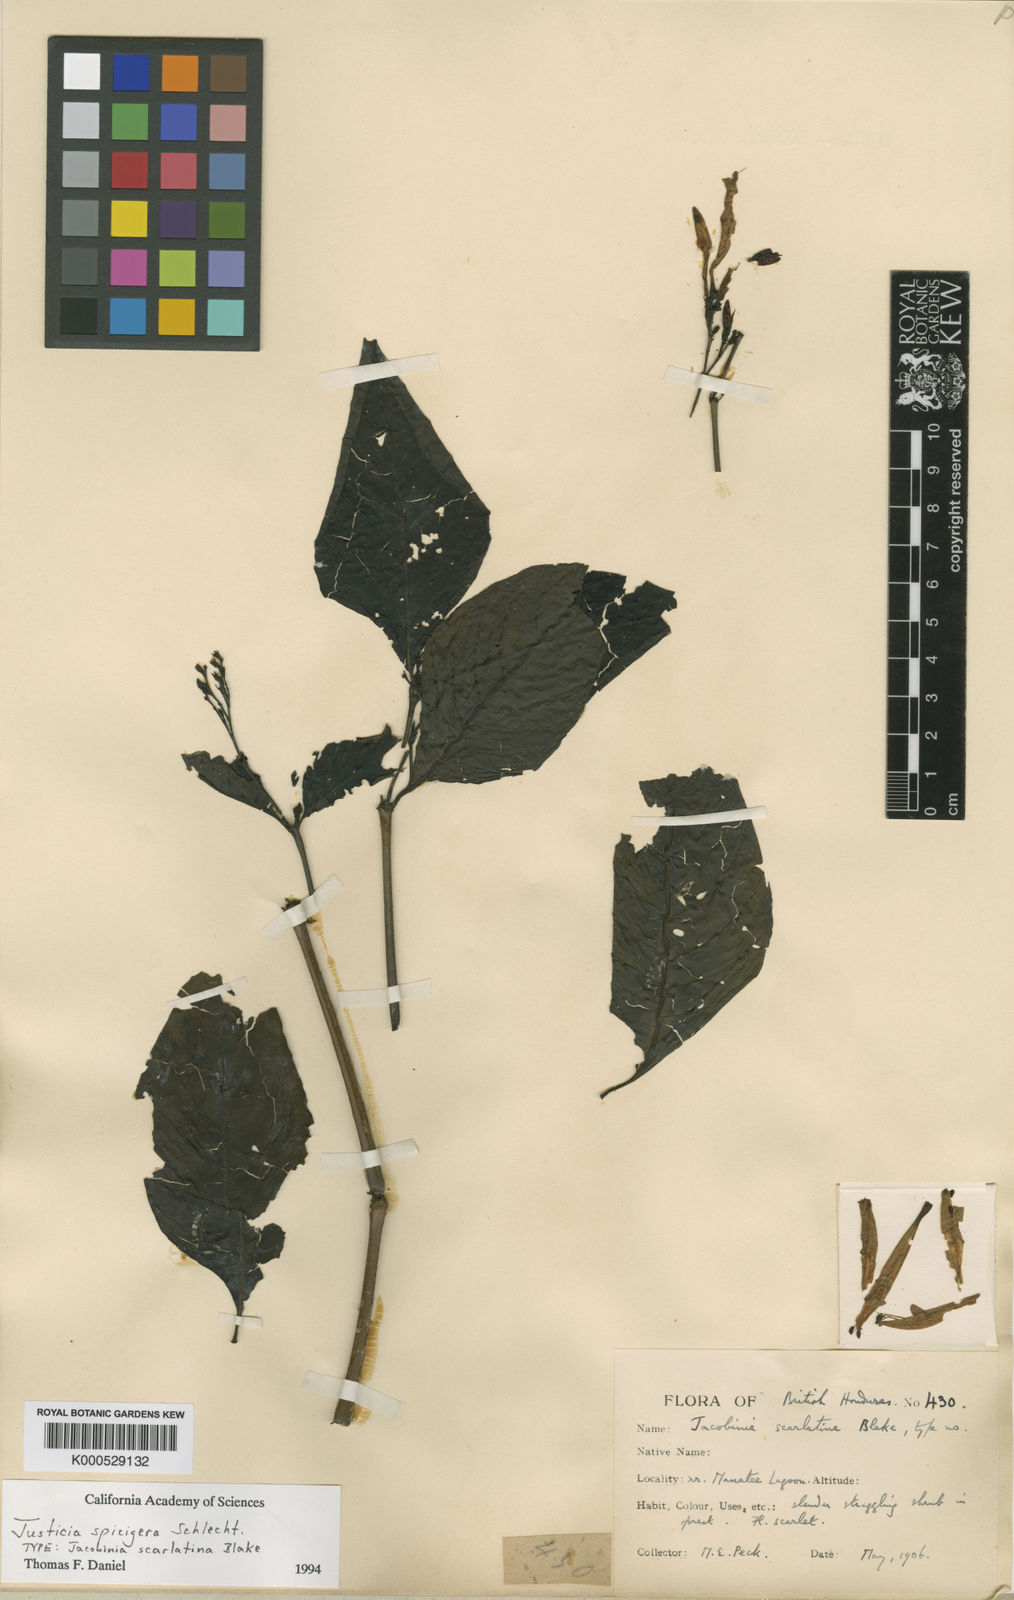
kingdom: Plantae
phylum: Tracheophyta
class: Magnoliopsida
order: Lamiales
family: Acanthaceae
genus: Justicia
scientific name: Justicia spicigera
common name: Mohintli
